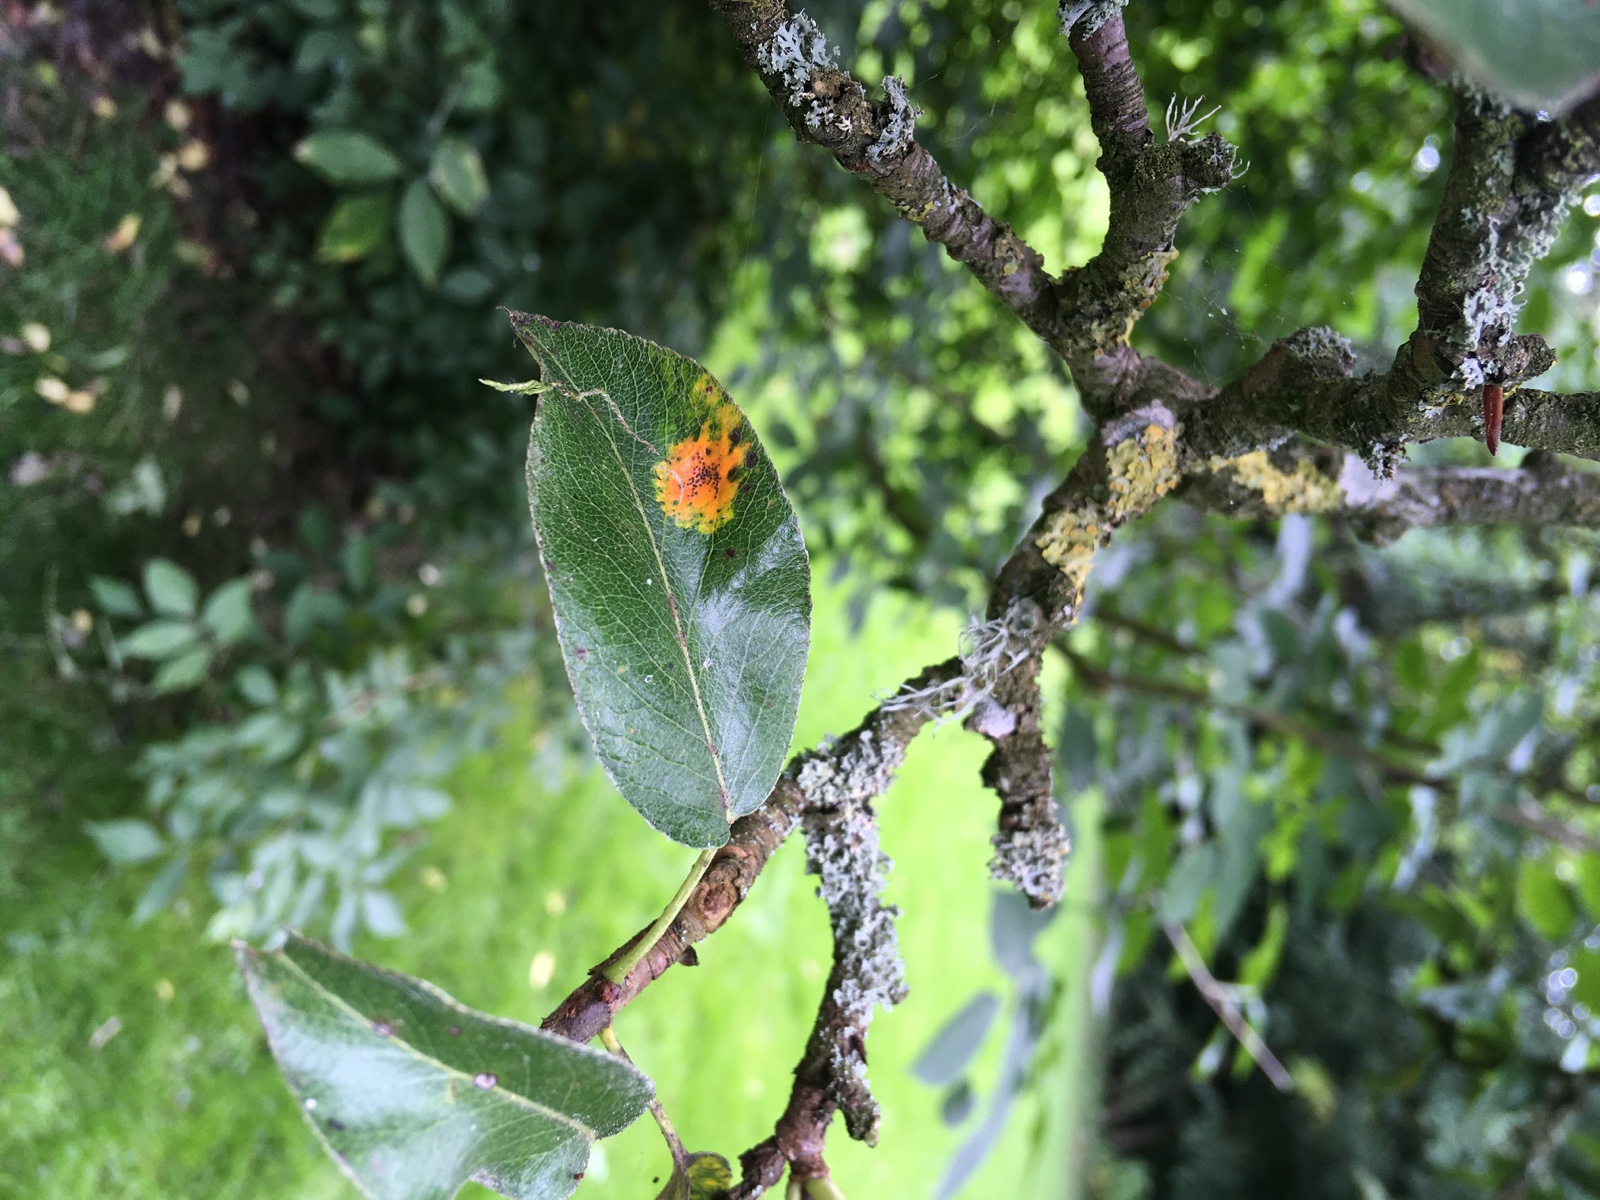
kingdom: Fungi
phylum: Basidiomycota
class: Pucciniomycetes
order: Pucciniales
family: Gymnosporangiaceae
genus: Gymnosporangium
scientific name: Gymnosporangium sabinae
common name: pæregitter-bævrerust
